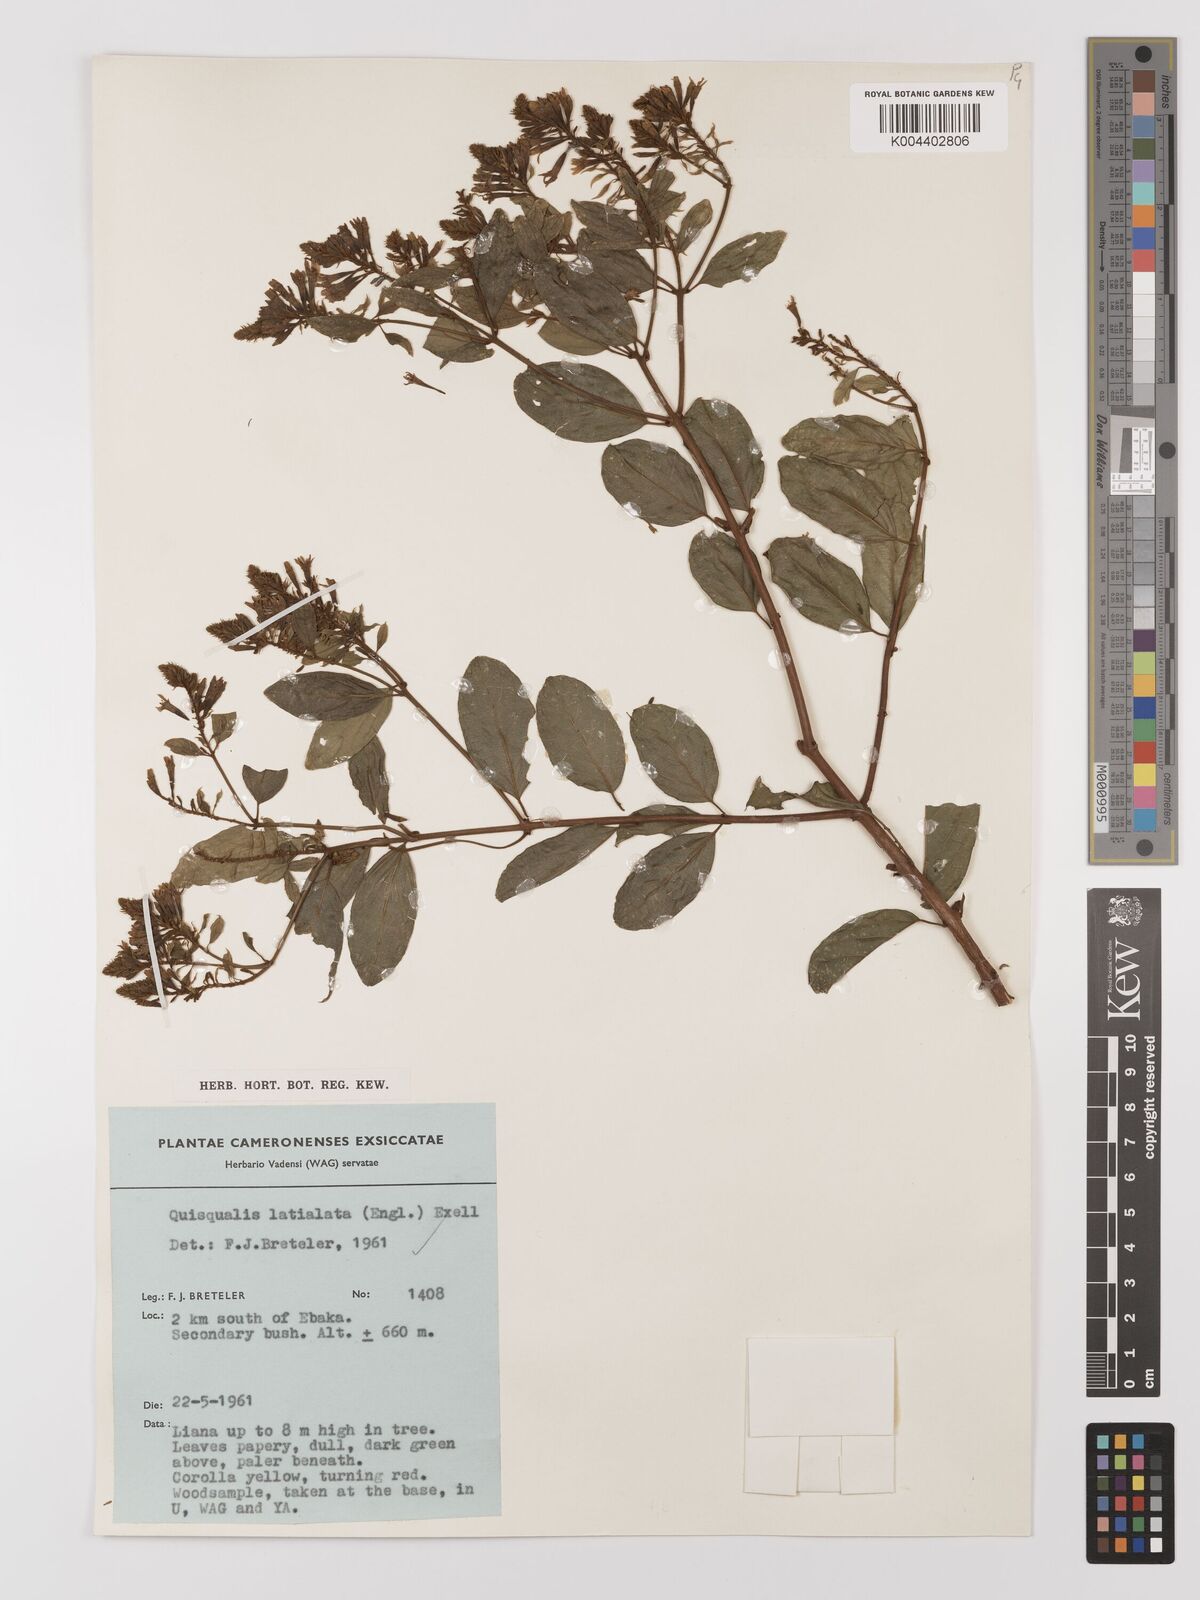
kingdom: Plantae
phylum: Tracheophyta
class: Magnoliopsida
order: Myrtales
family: Combretaceae
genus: Combretum
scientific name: Combretum latialatum
